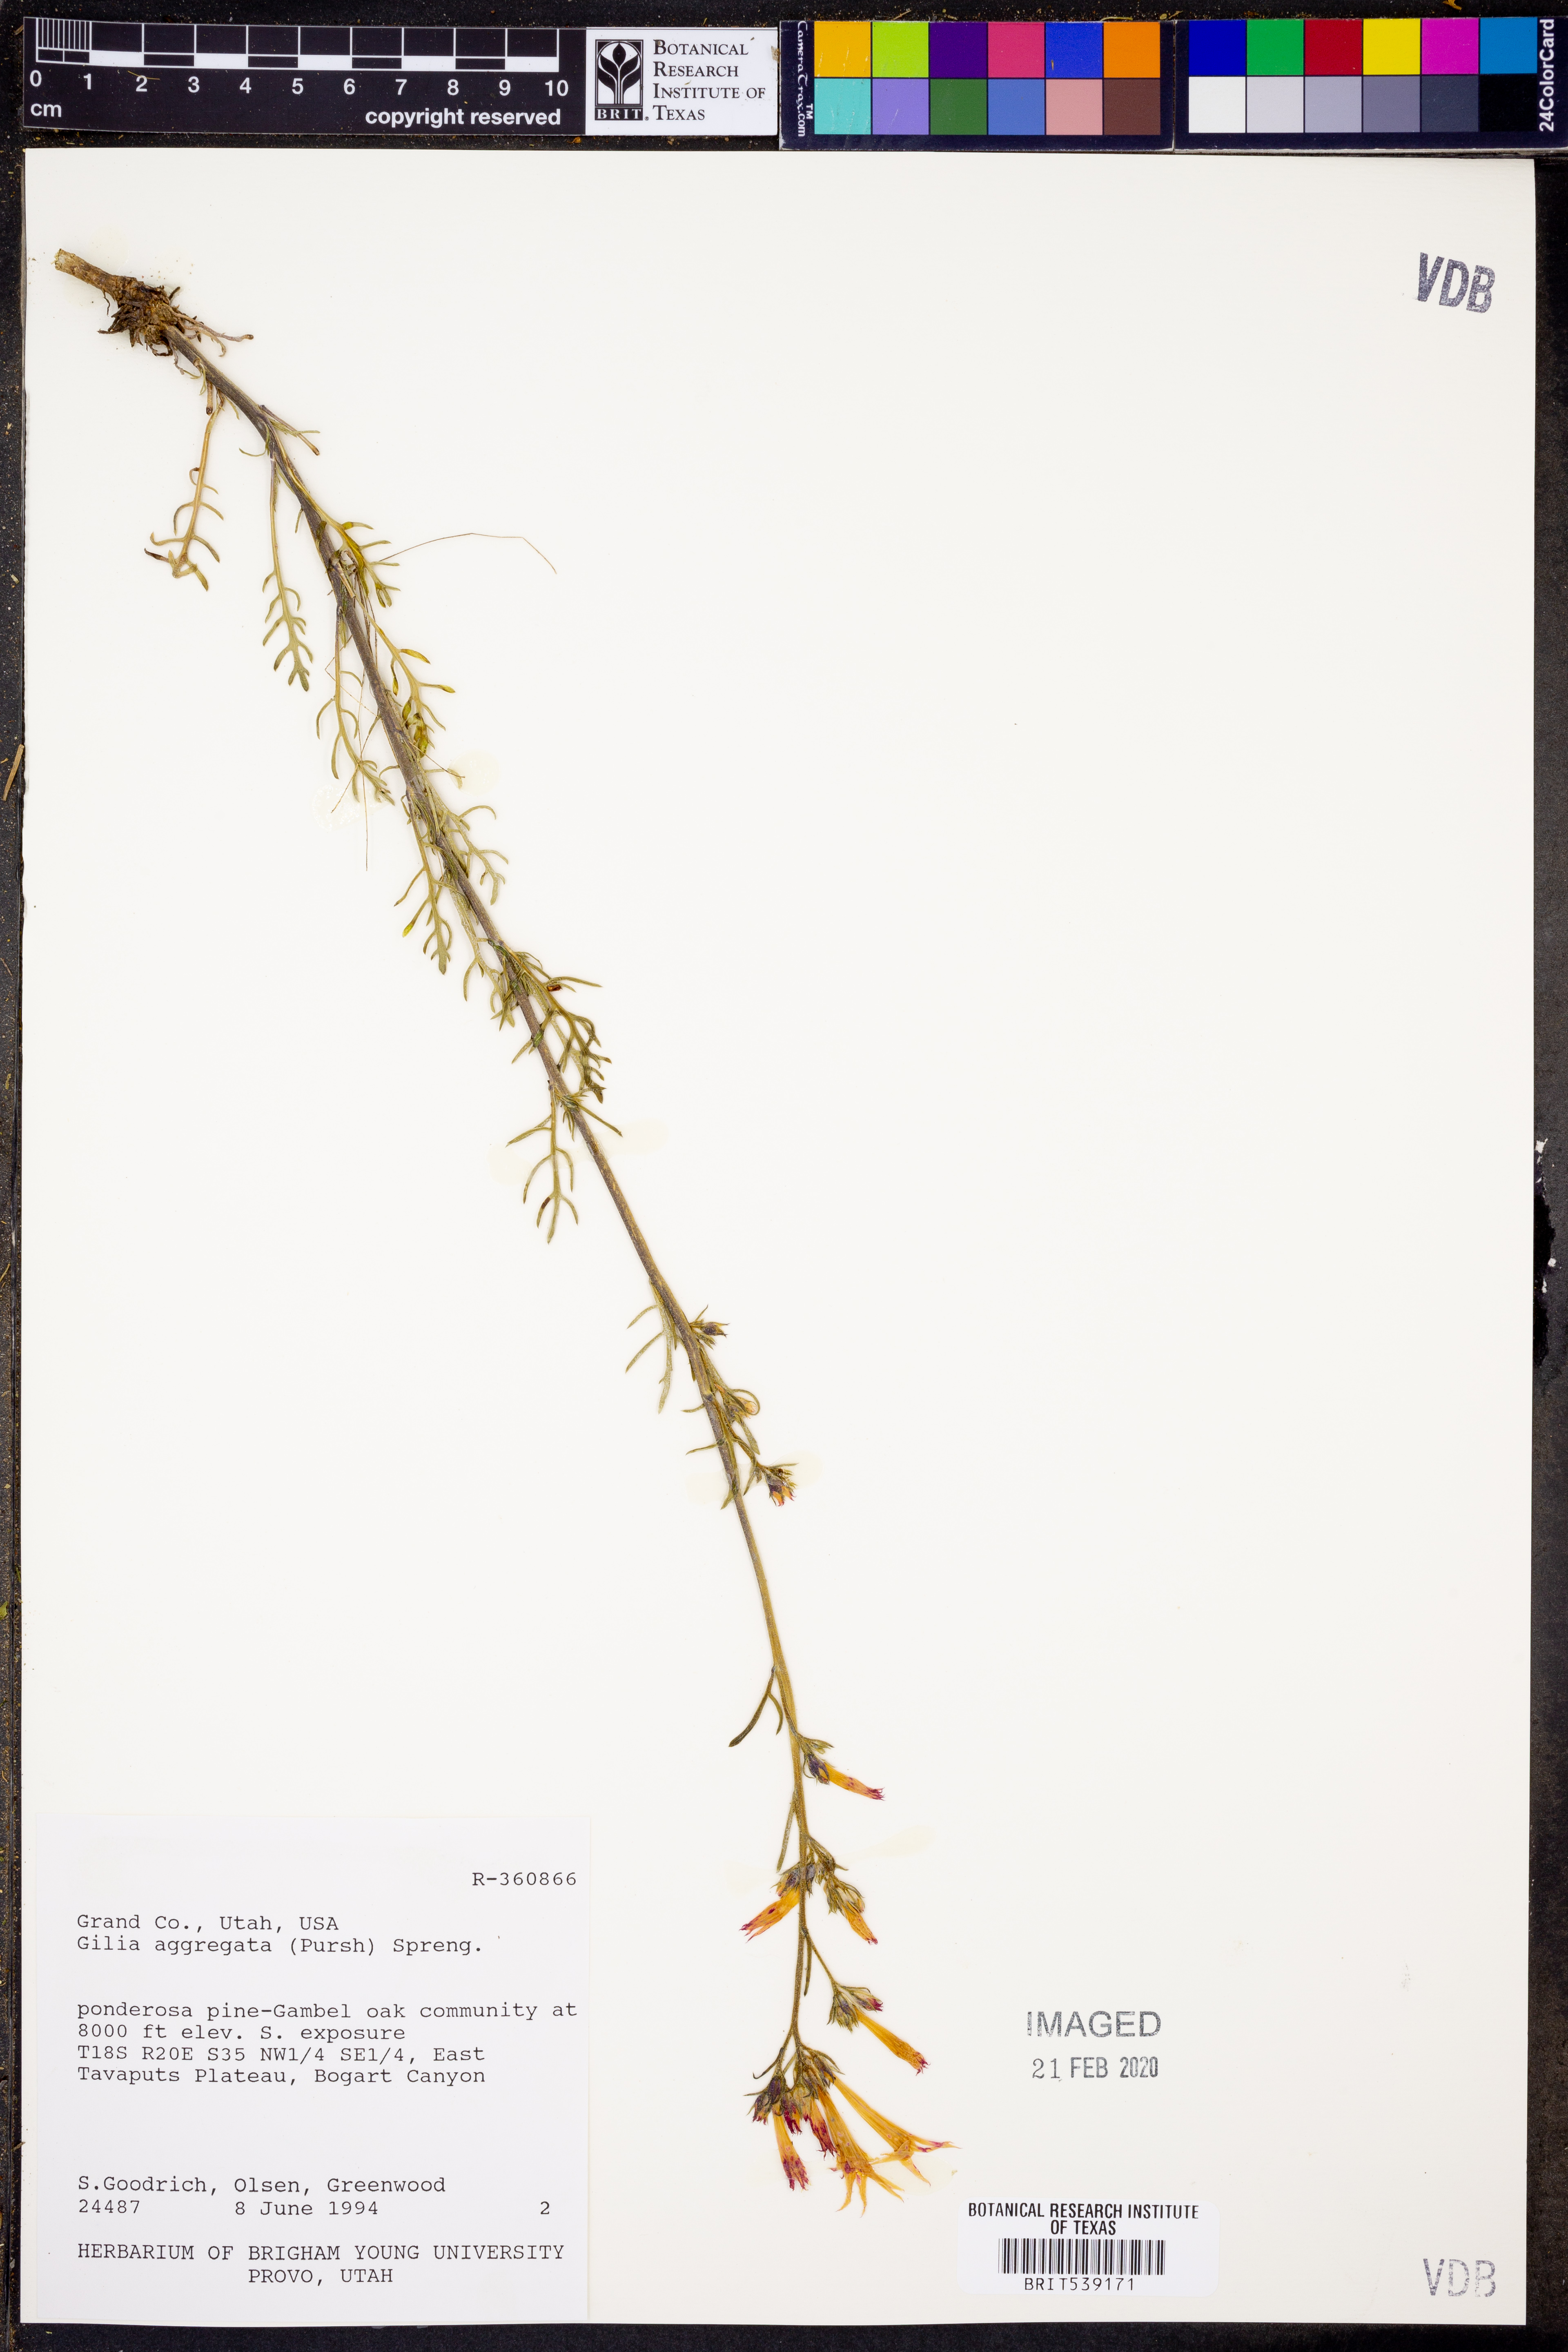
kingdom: Plantae
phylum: Tracheophyta
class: Magnoliopsida
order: Ericales
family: Polemoniaceae
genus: Ipomopsis
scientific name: Ipomopsis aggregata
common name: Scarlet gilia
